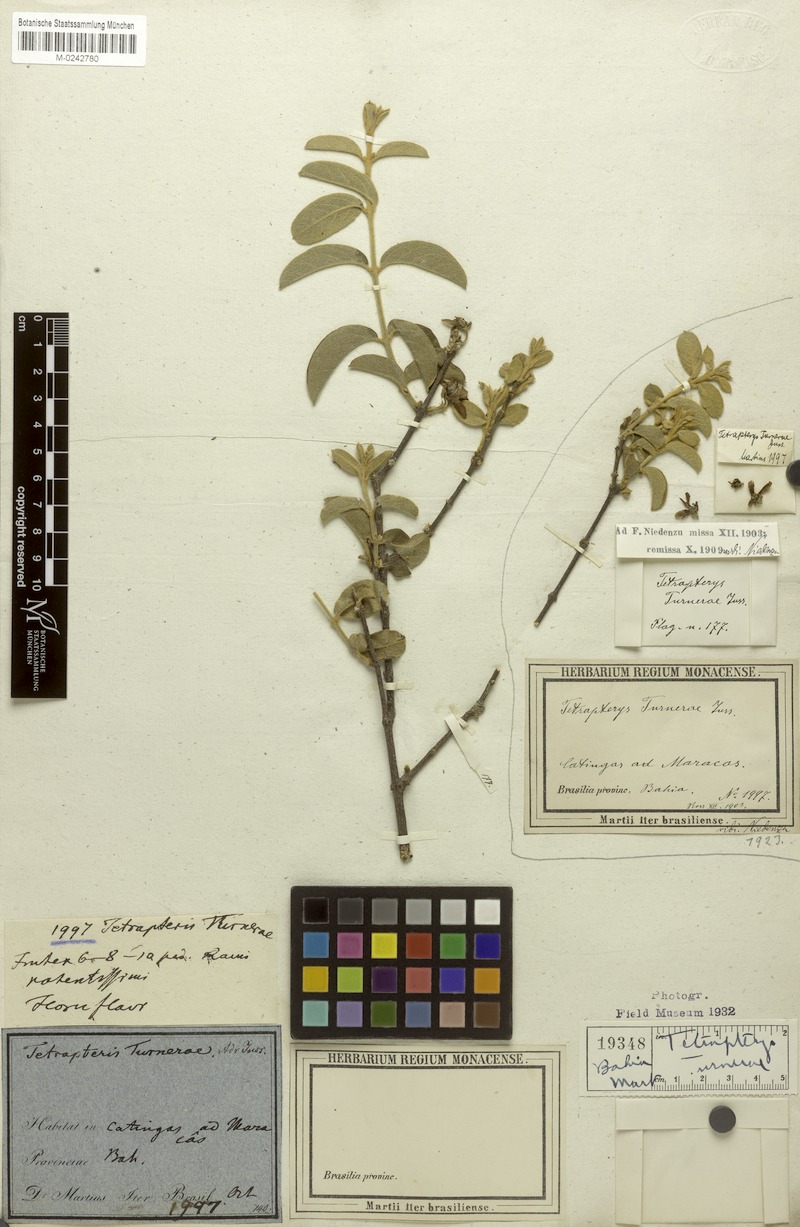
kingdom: Plantae
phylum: Tracheophyta
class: Magnoliopsida
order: Malpighiales
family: Malpighiaceae
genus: Glicophyllum
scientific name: Glicophyllum turnerae
